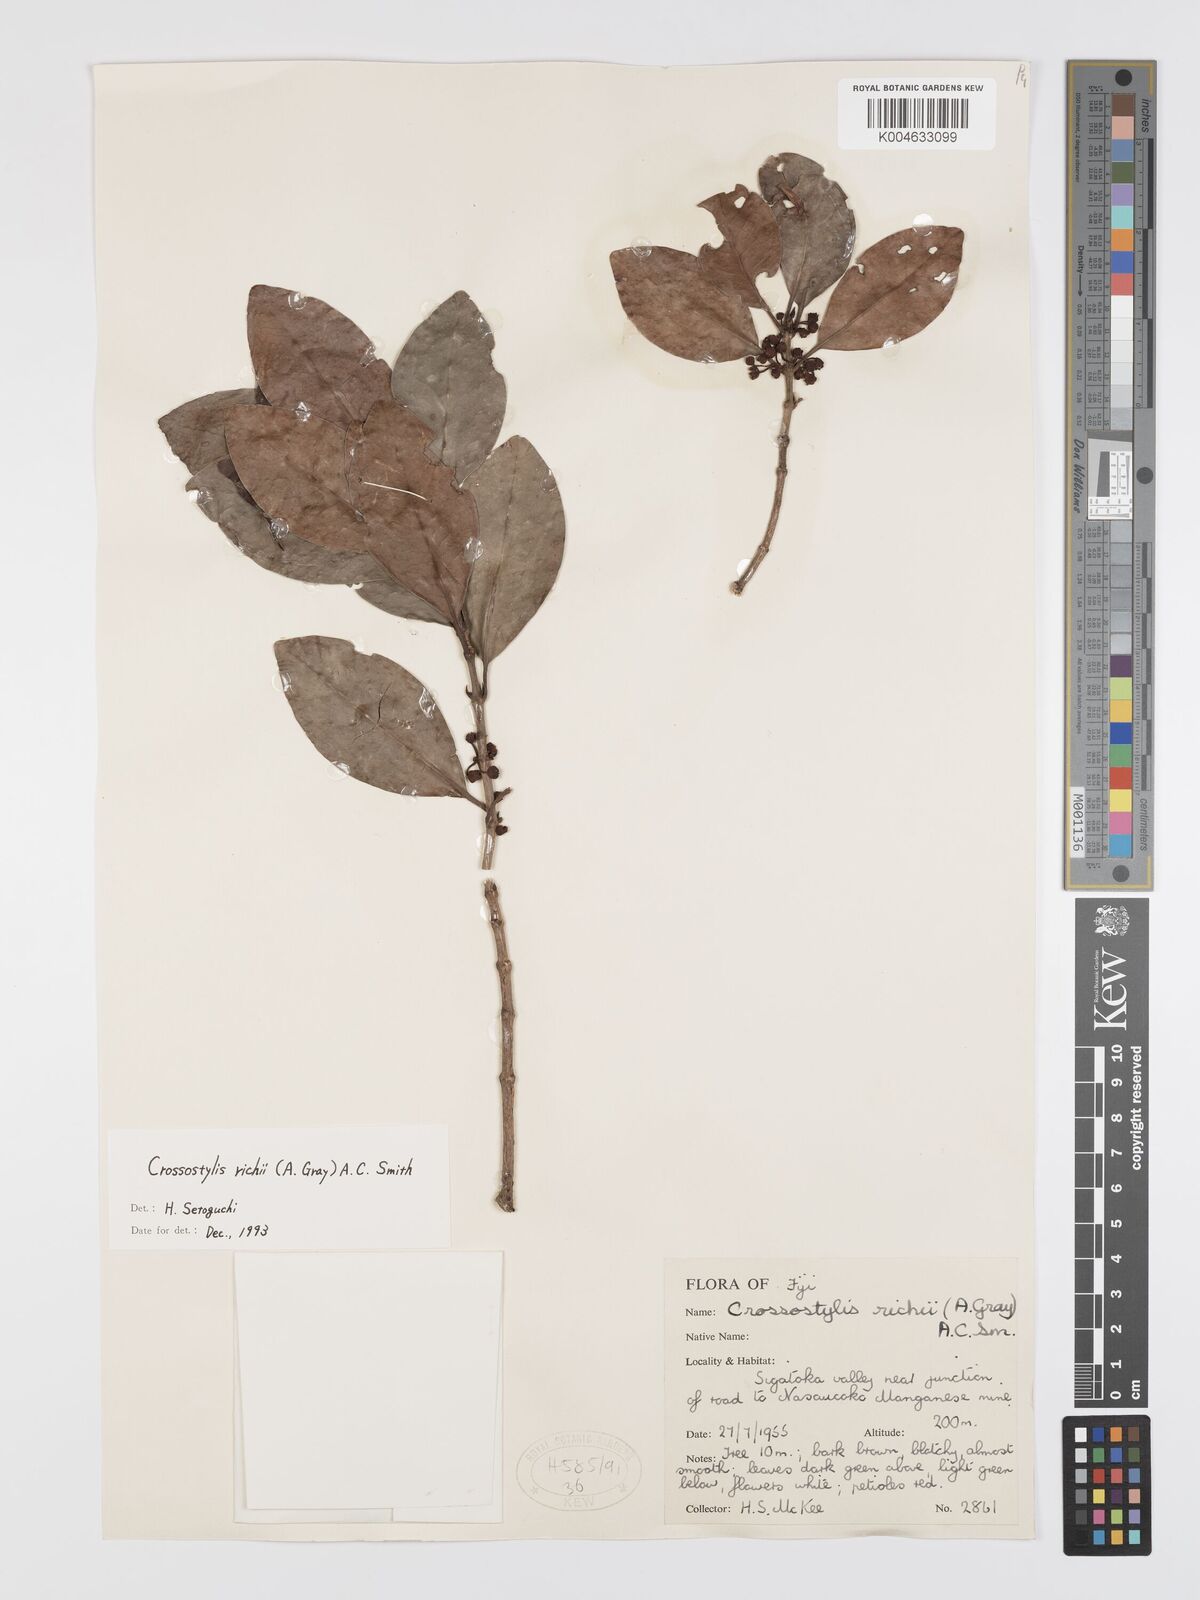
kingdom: Plantae
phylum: Tracheophyta
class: Magnoliopsida
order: Malpighiales
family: Rhizophoraceae
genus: Crossostylis
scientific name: Crossostylis richii
